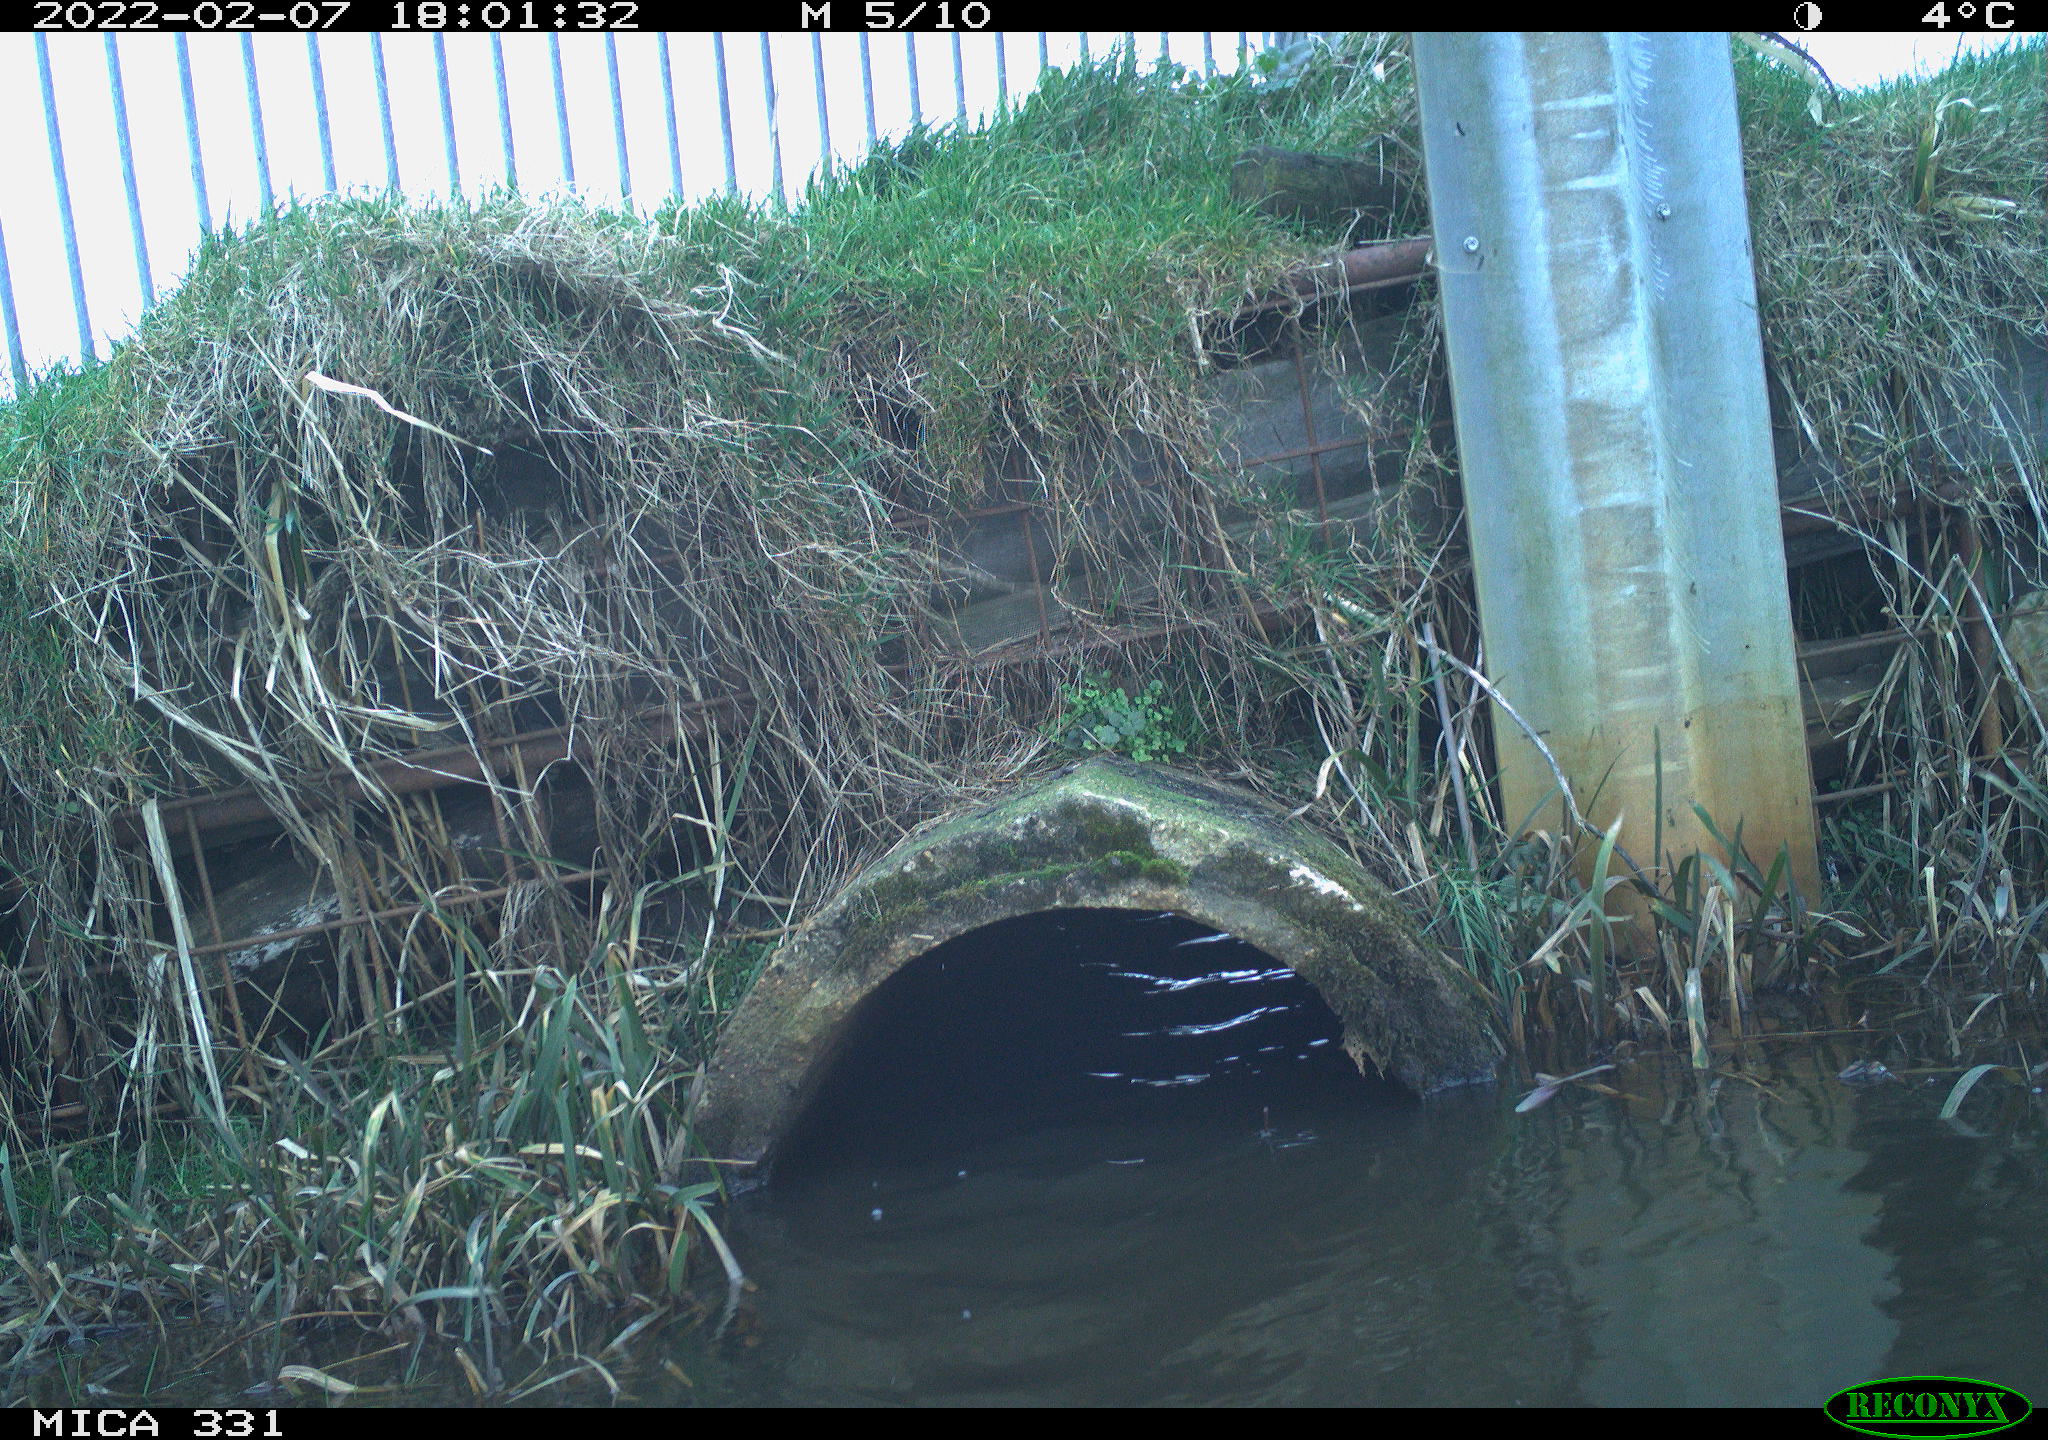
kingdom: Animalia
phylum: Chordata
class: Aves
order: Pelecaniformes
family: Ardeidae
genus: Ardea
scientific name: Ardea alba
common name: Great egret
